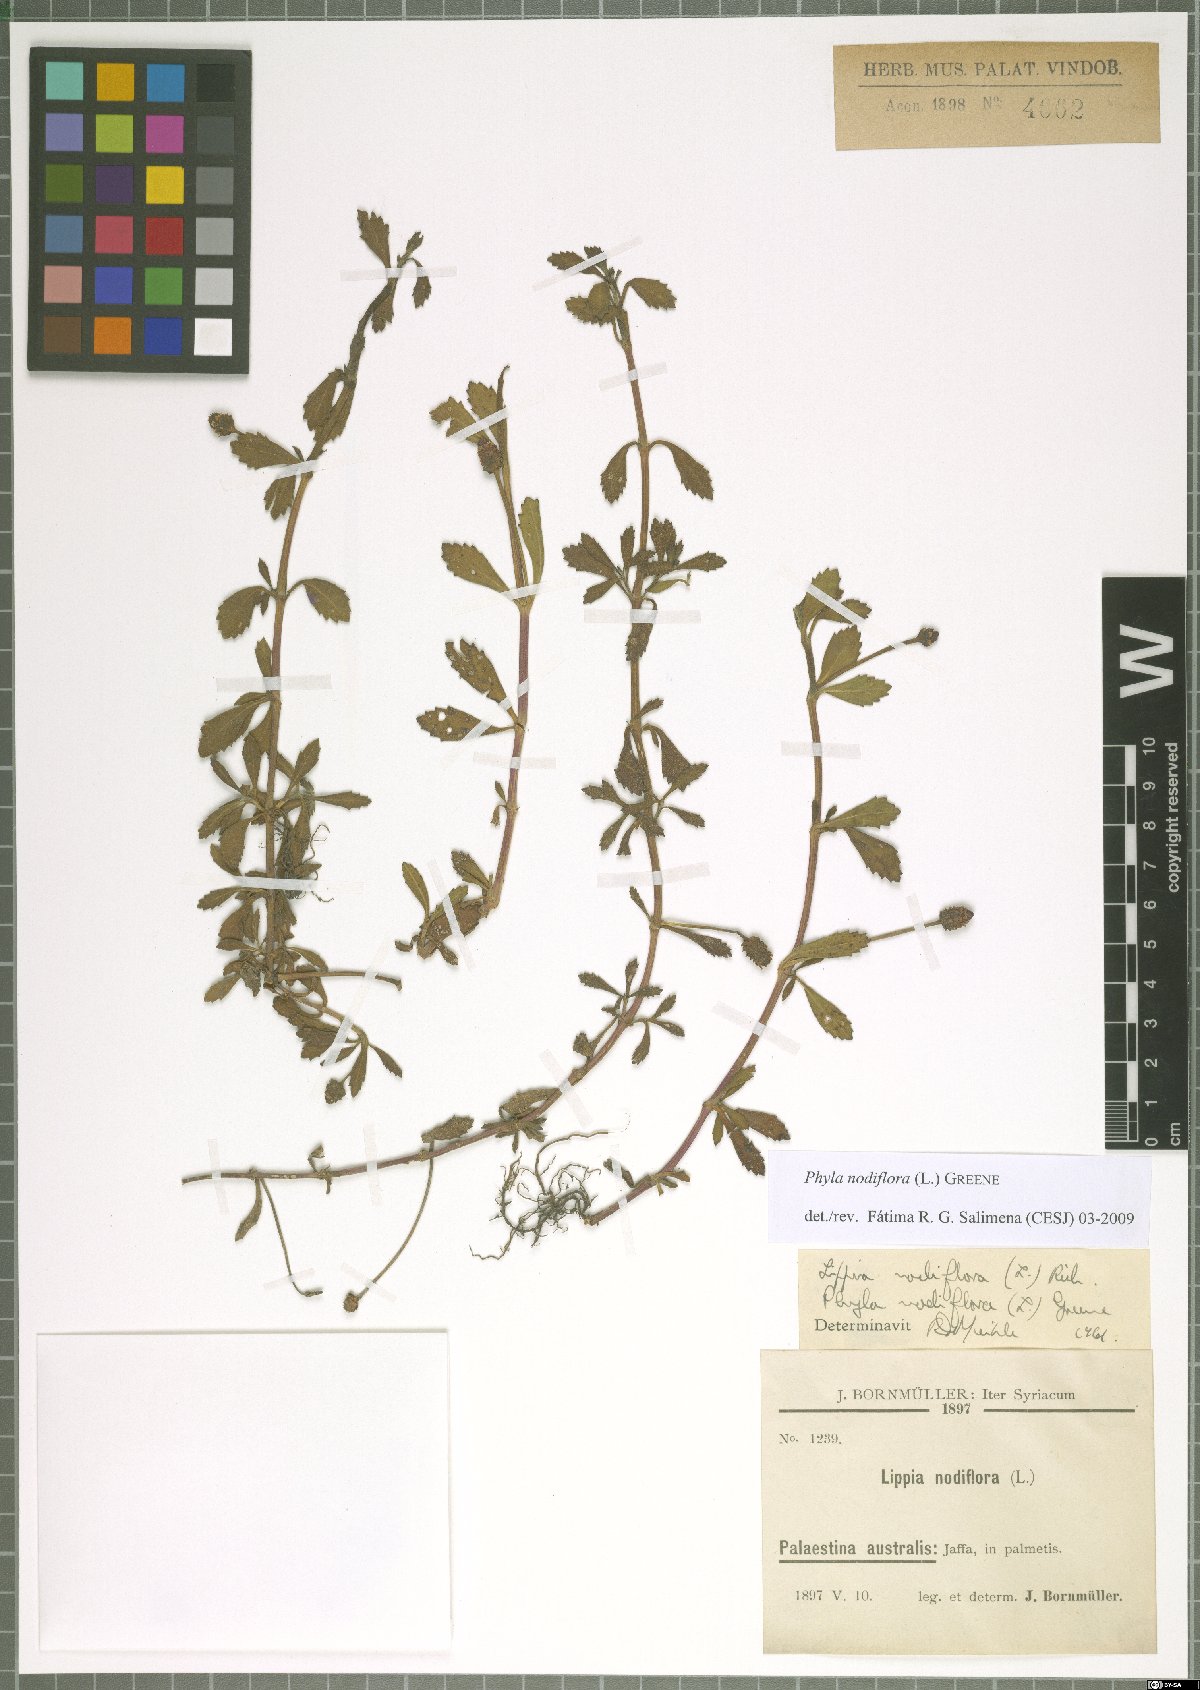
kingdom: Plantae
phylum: Tracheophyta
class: Magnoliopsida
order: Lamiales
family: Verbenaceae
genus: Phyla
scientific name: Phyla nodiflora
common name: Frogfruit
